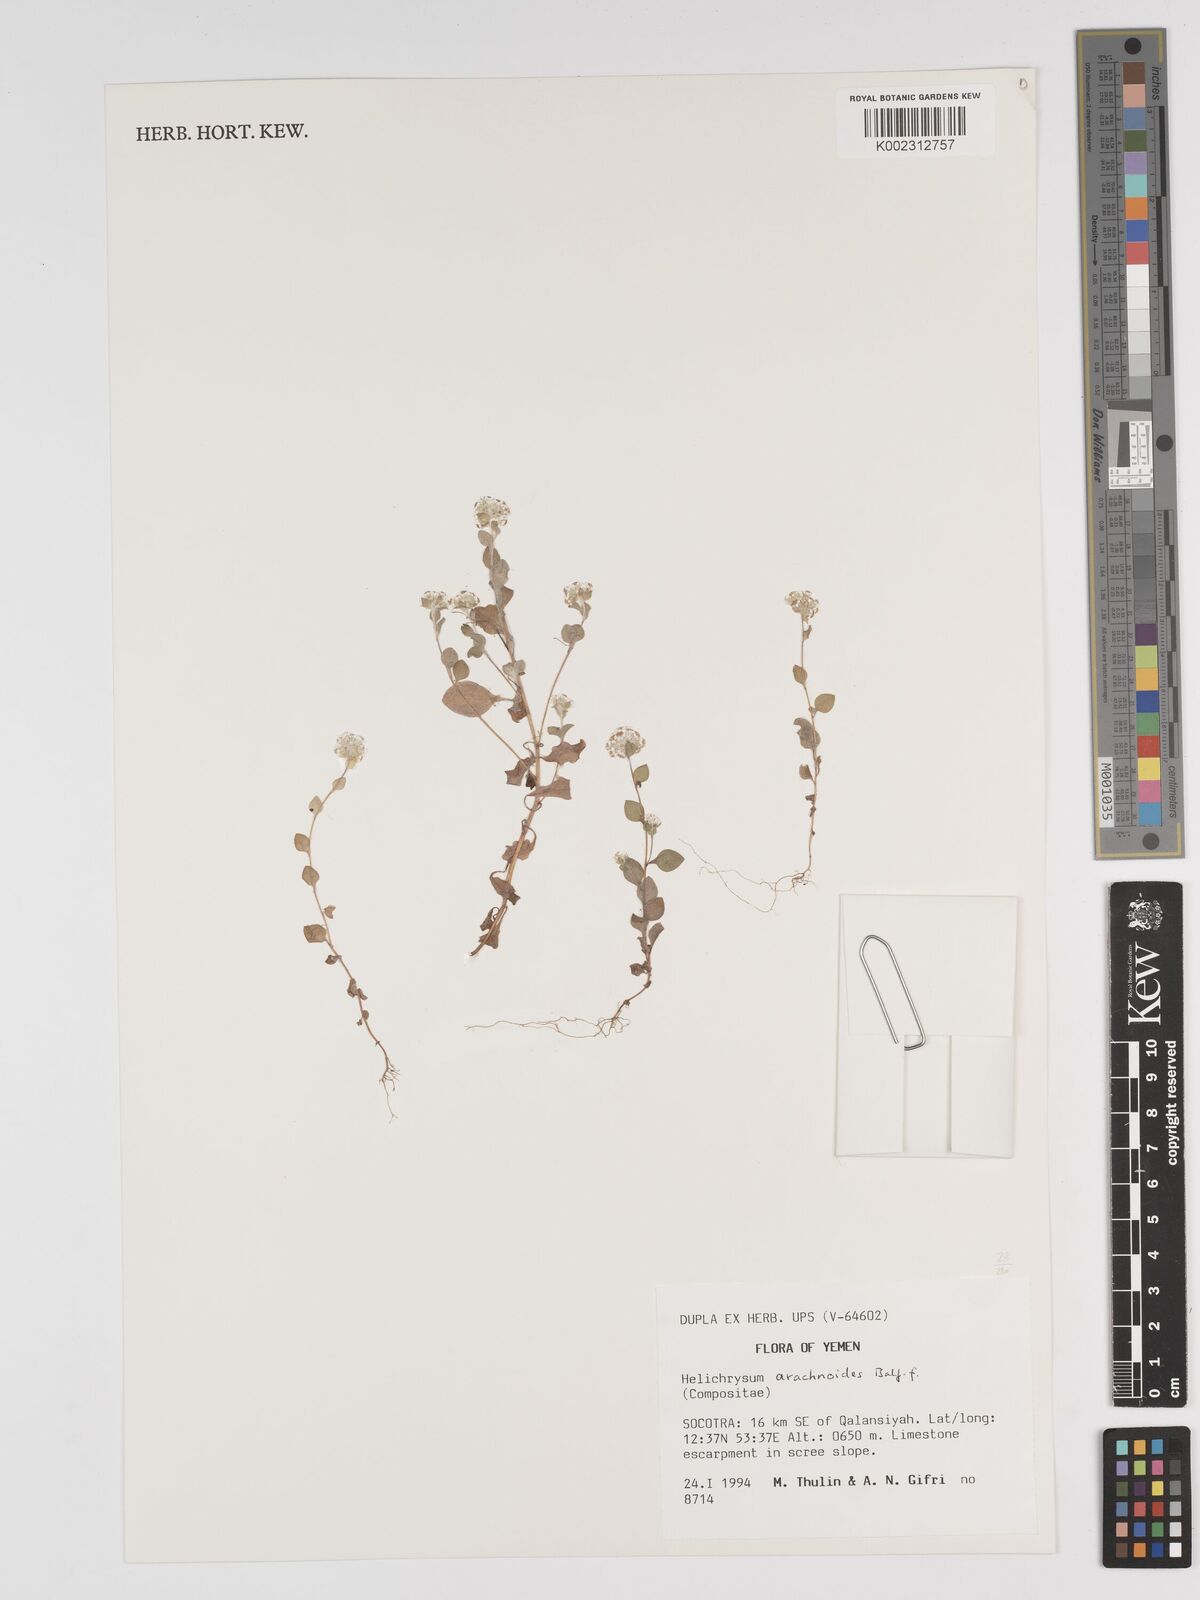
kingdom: Plantae
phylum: Tracheophyta
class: Magnoliopsida
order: Asterales
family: Asteraceae
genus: Libinhania
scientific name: Libinhania arachnoides
